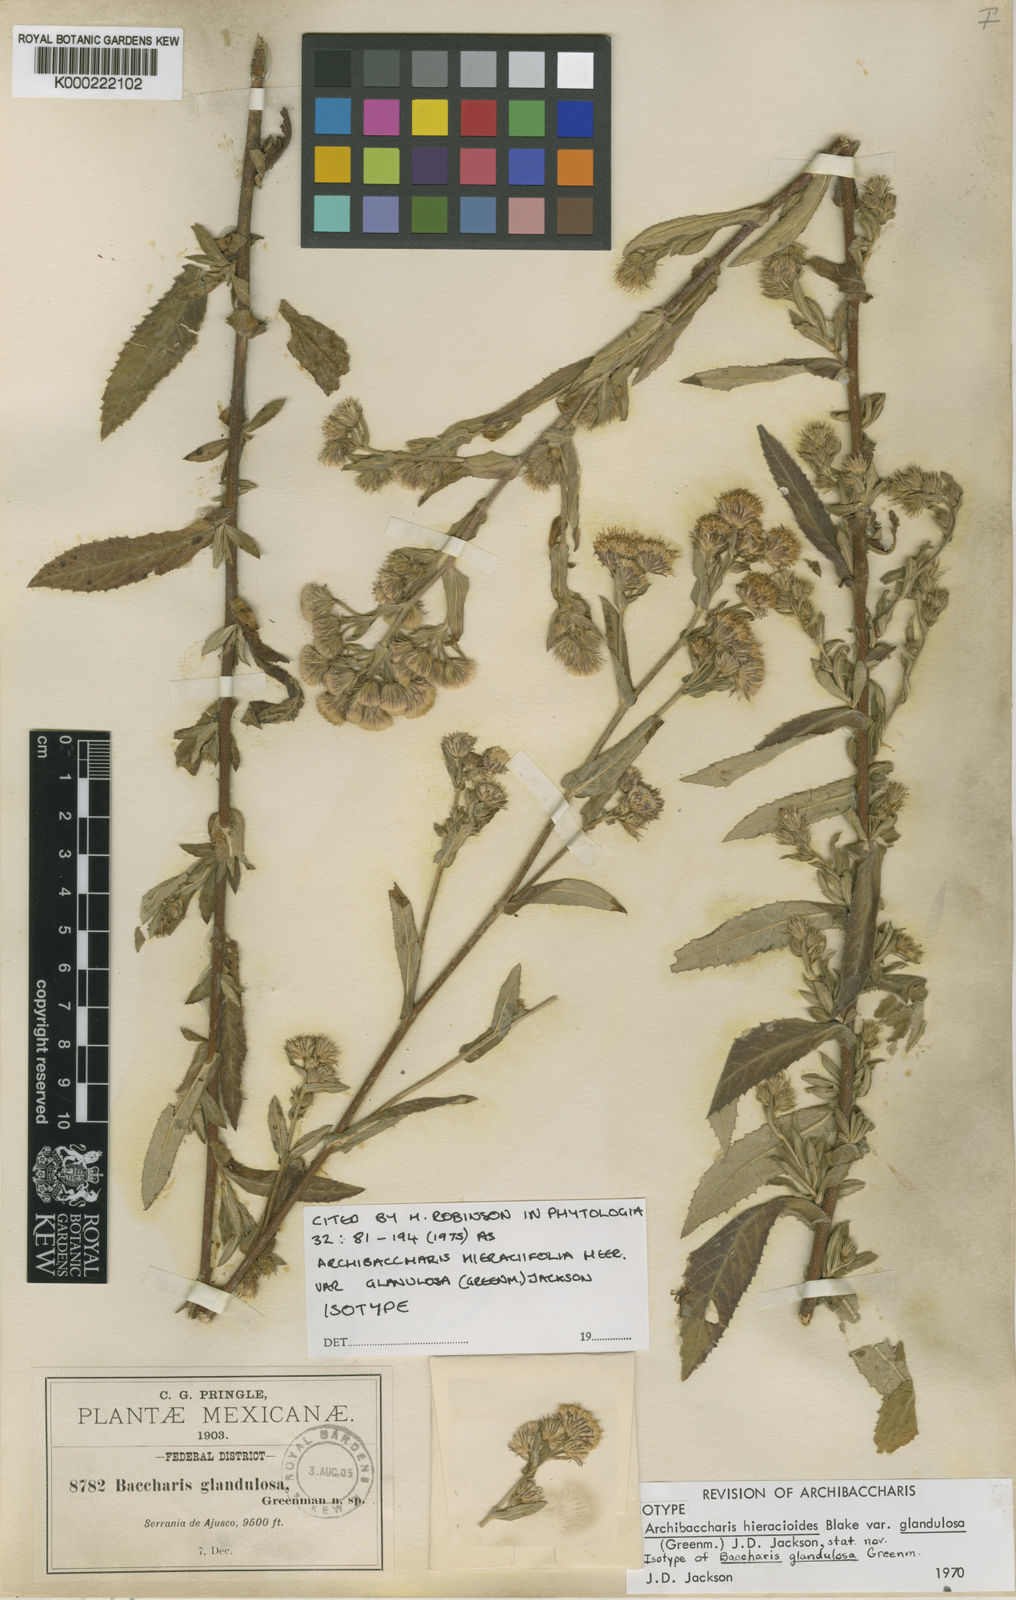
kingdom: Plantae
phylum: Tracheophyta
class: Magnoliopsida
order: Asterales
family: Asteraceae
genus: Archibaccharis
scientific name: Archibaccharis auriculata
